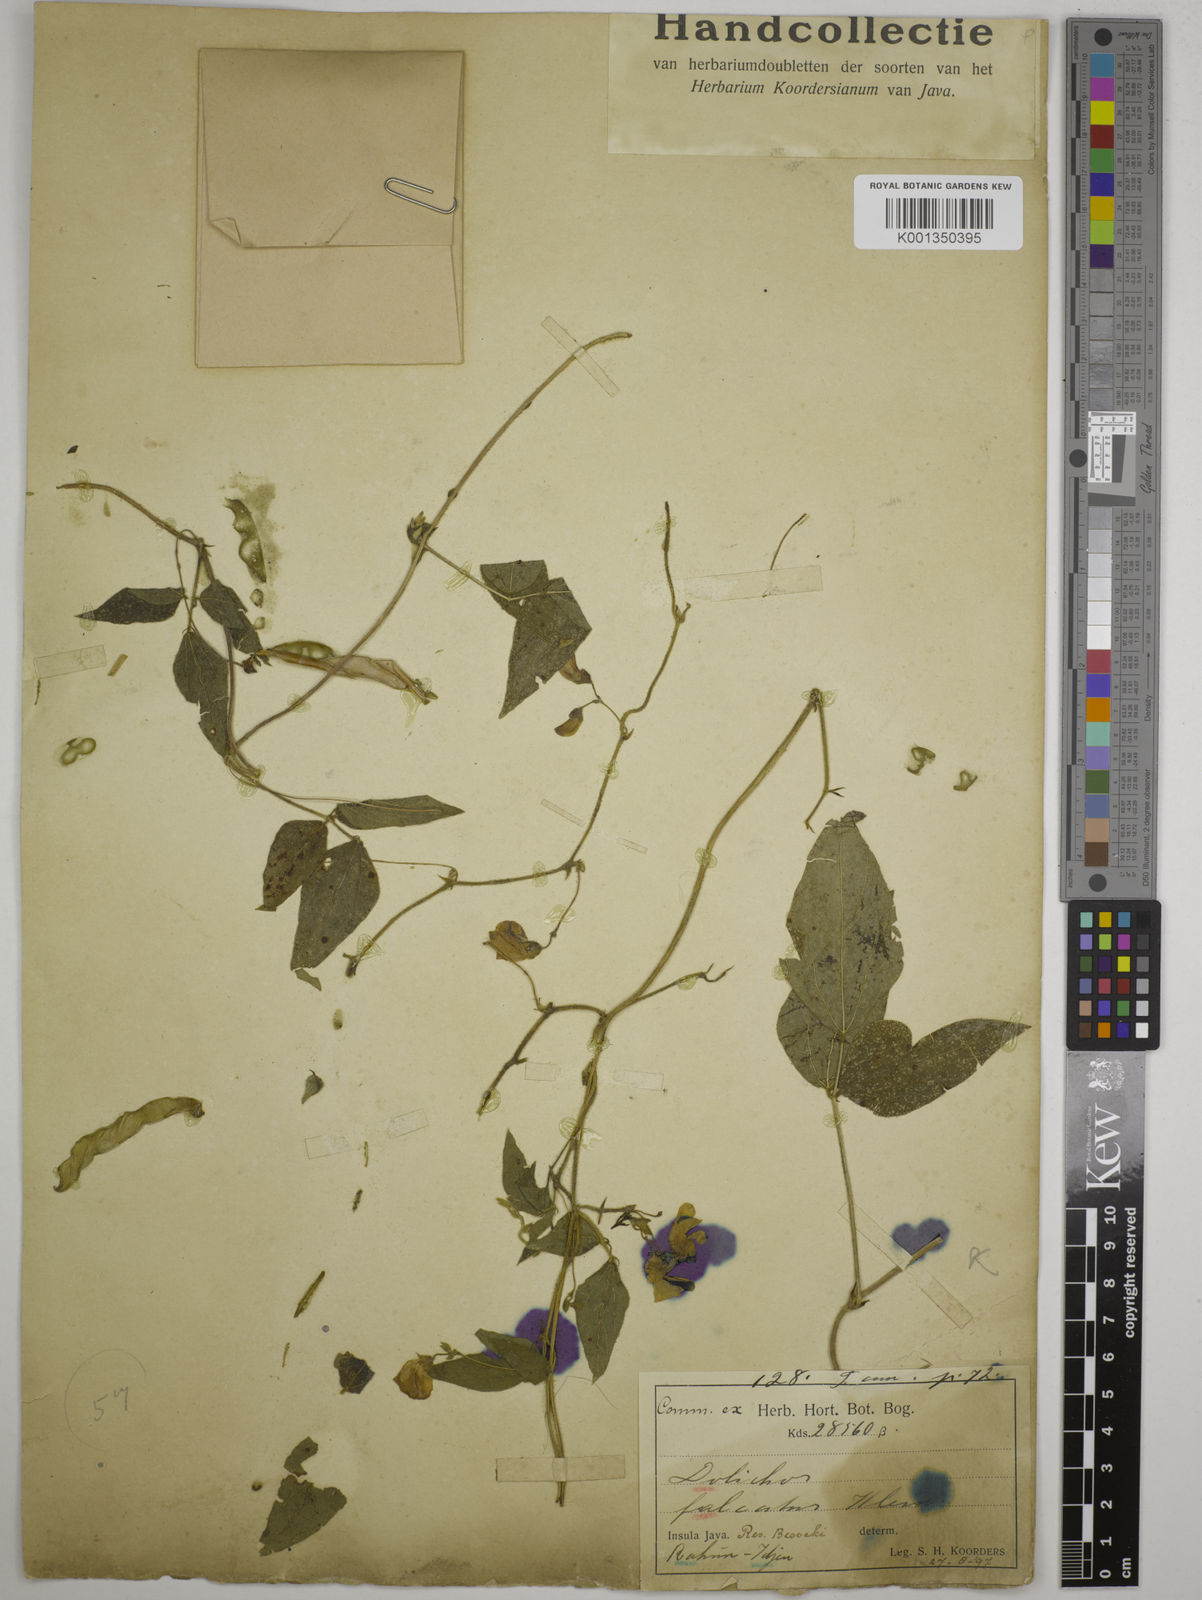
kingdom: Plantae
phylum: Tracheophyta
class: Magnoliopsida
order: Fabales
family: Fabaceae
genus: Dolichos
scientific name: Dolichos
